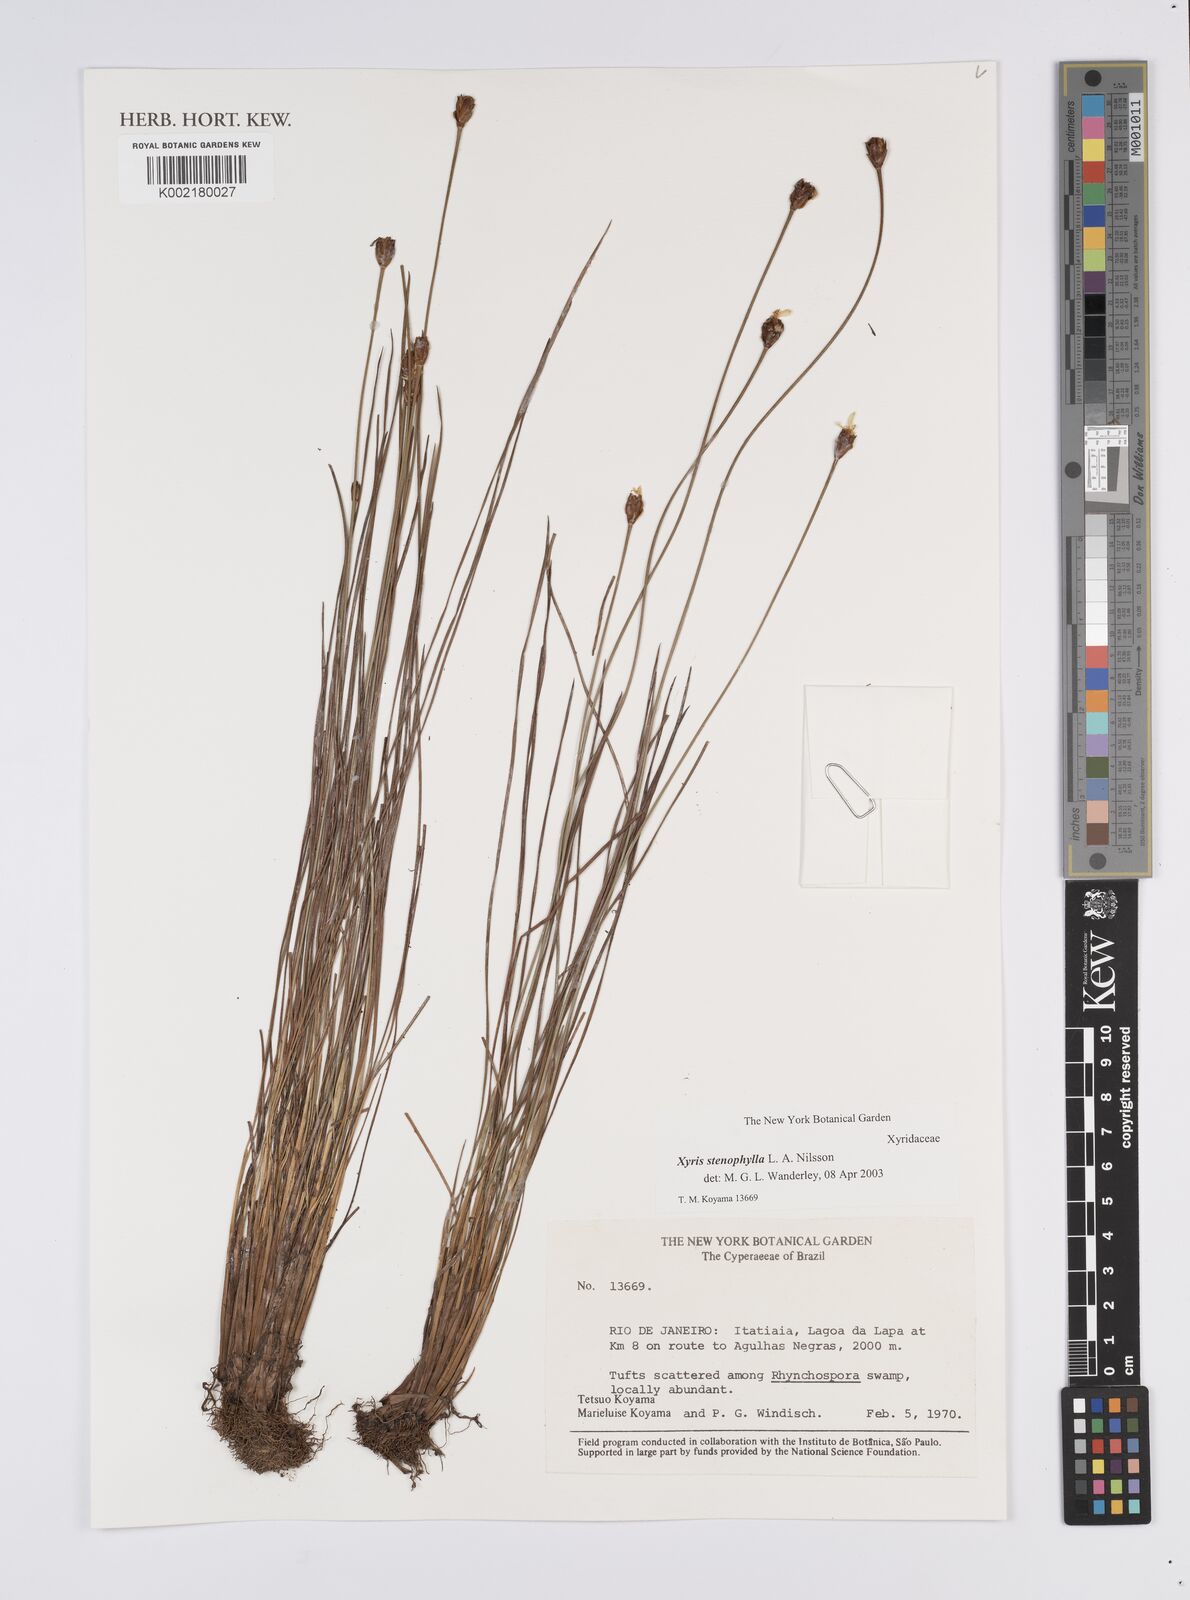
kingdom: Plantae
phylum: Tracheophyta
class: Liliopsida
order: Poales
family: Xyridaceae
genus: Xyris
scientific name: Xyris stenophylla
